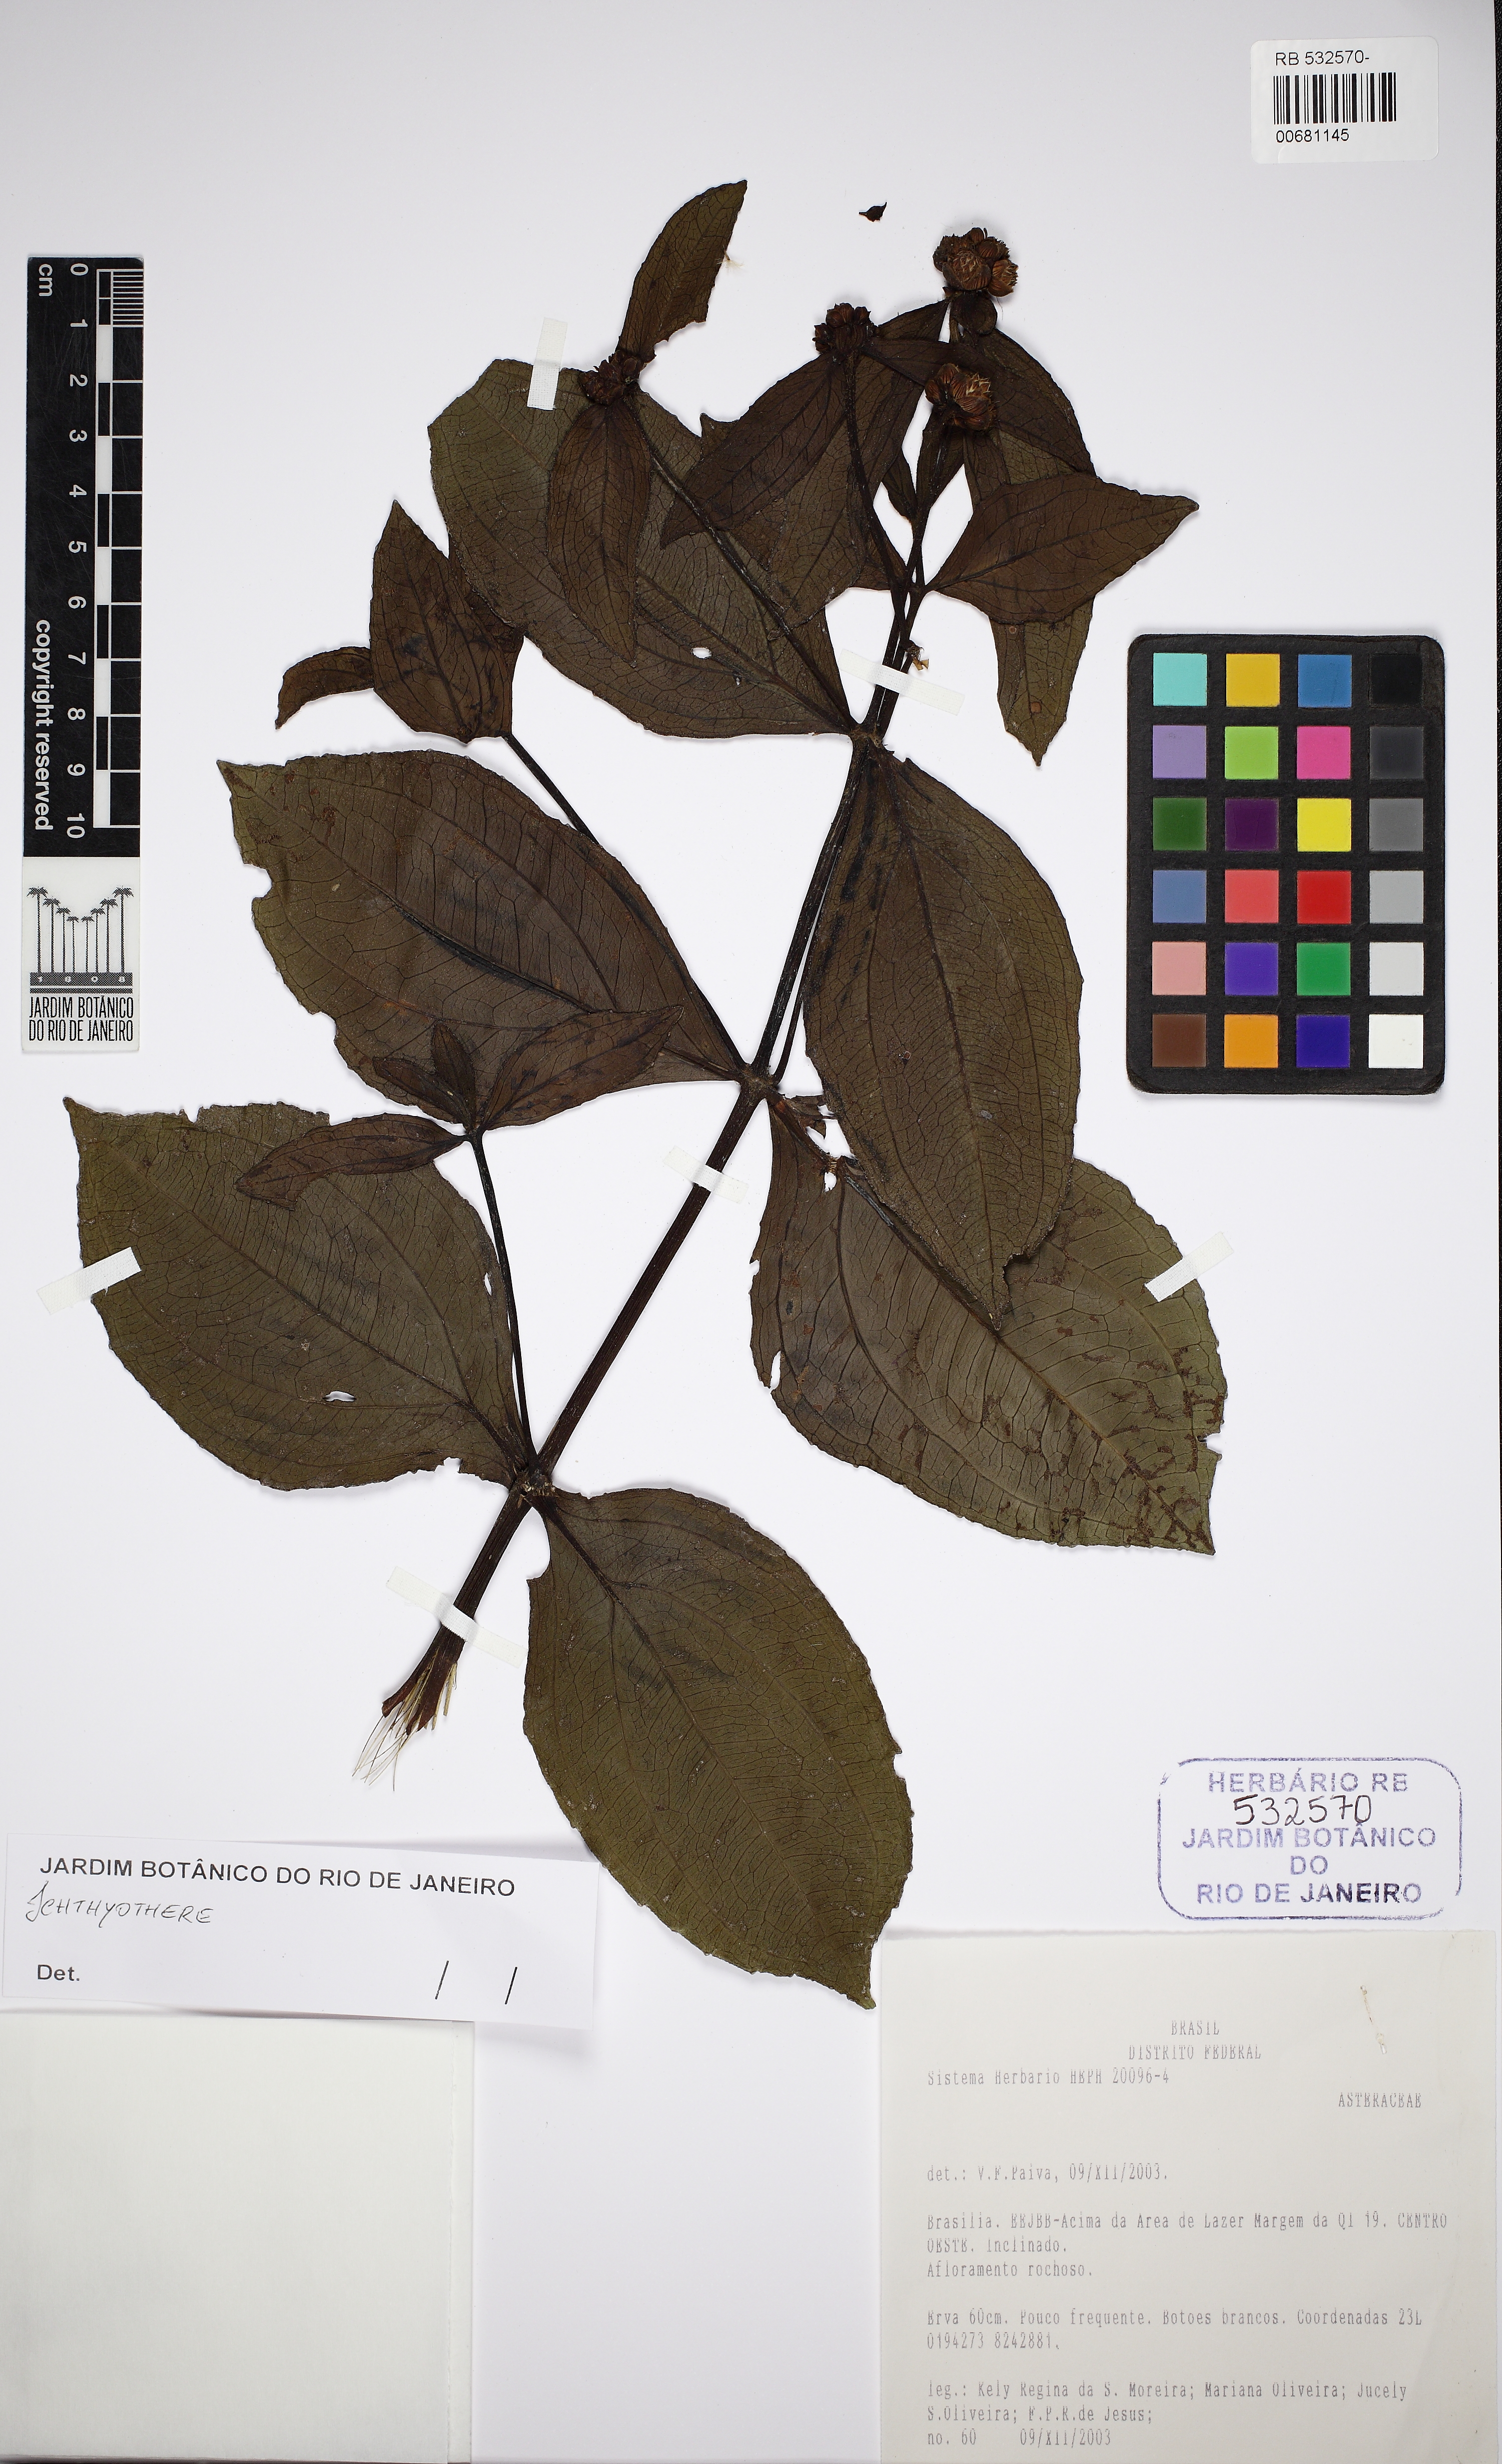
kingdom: Plantae
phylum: Tracheophyta
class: Magnoliopsida
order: Asterales
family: Asteraceae
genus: Ichthyothere
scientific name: Ichthyothere
